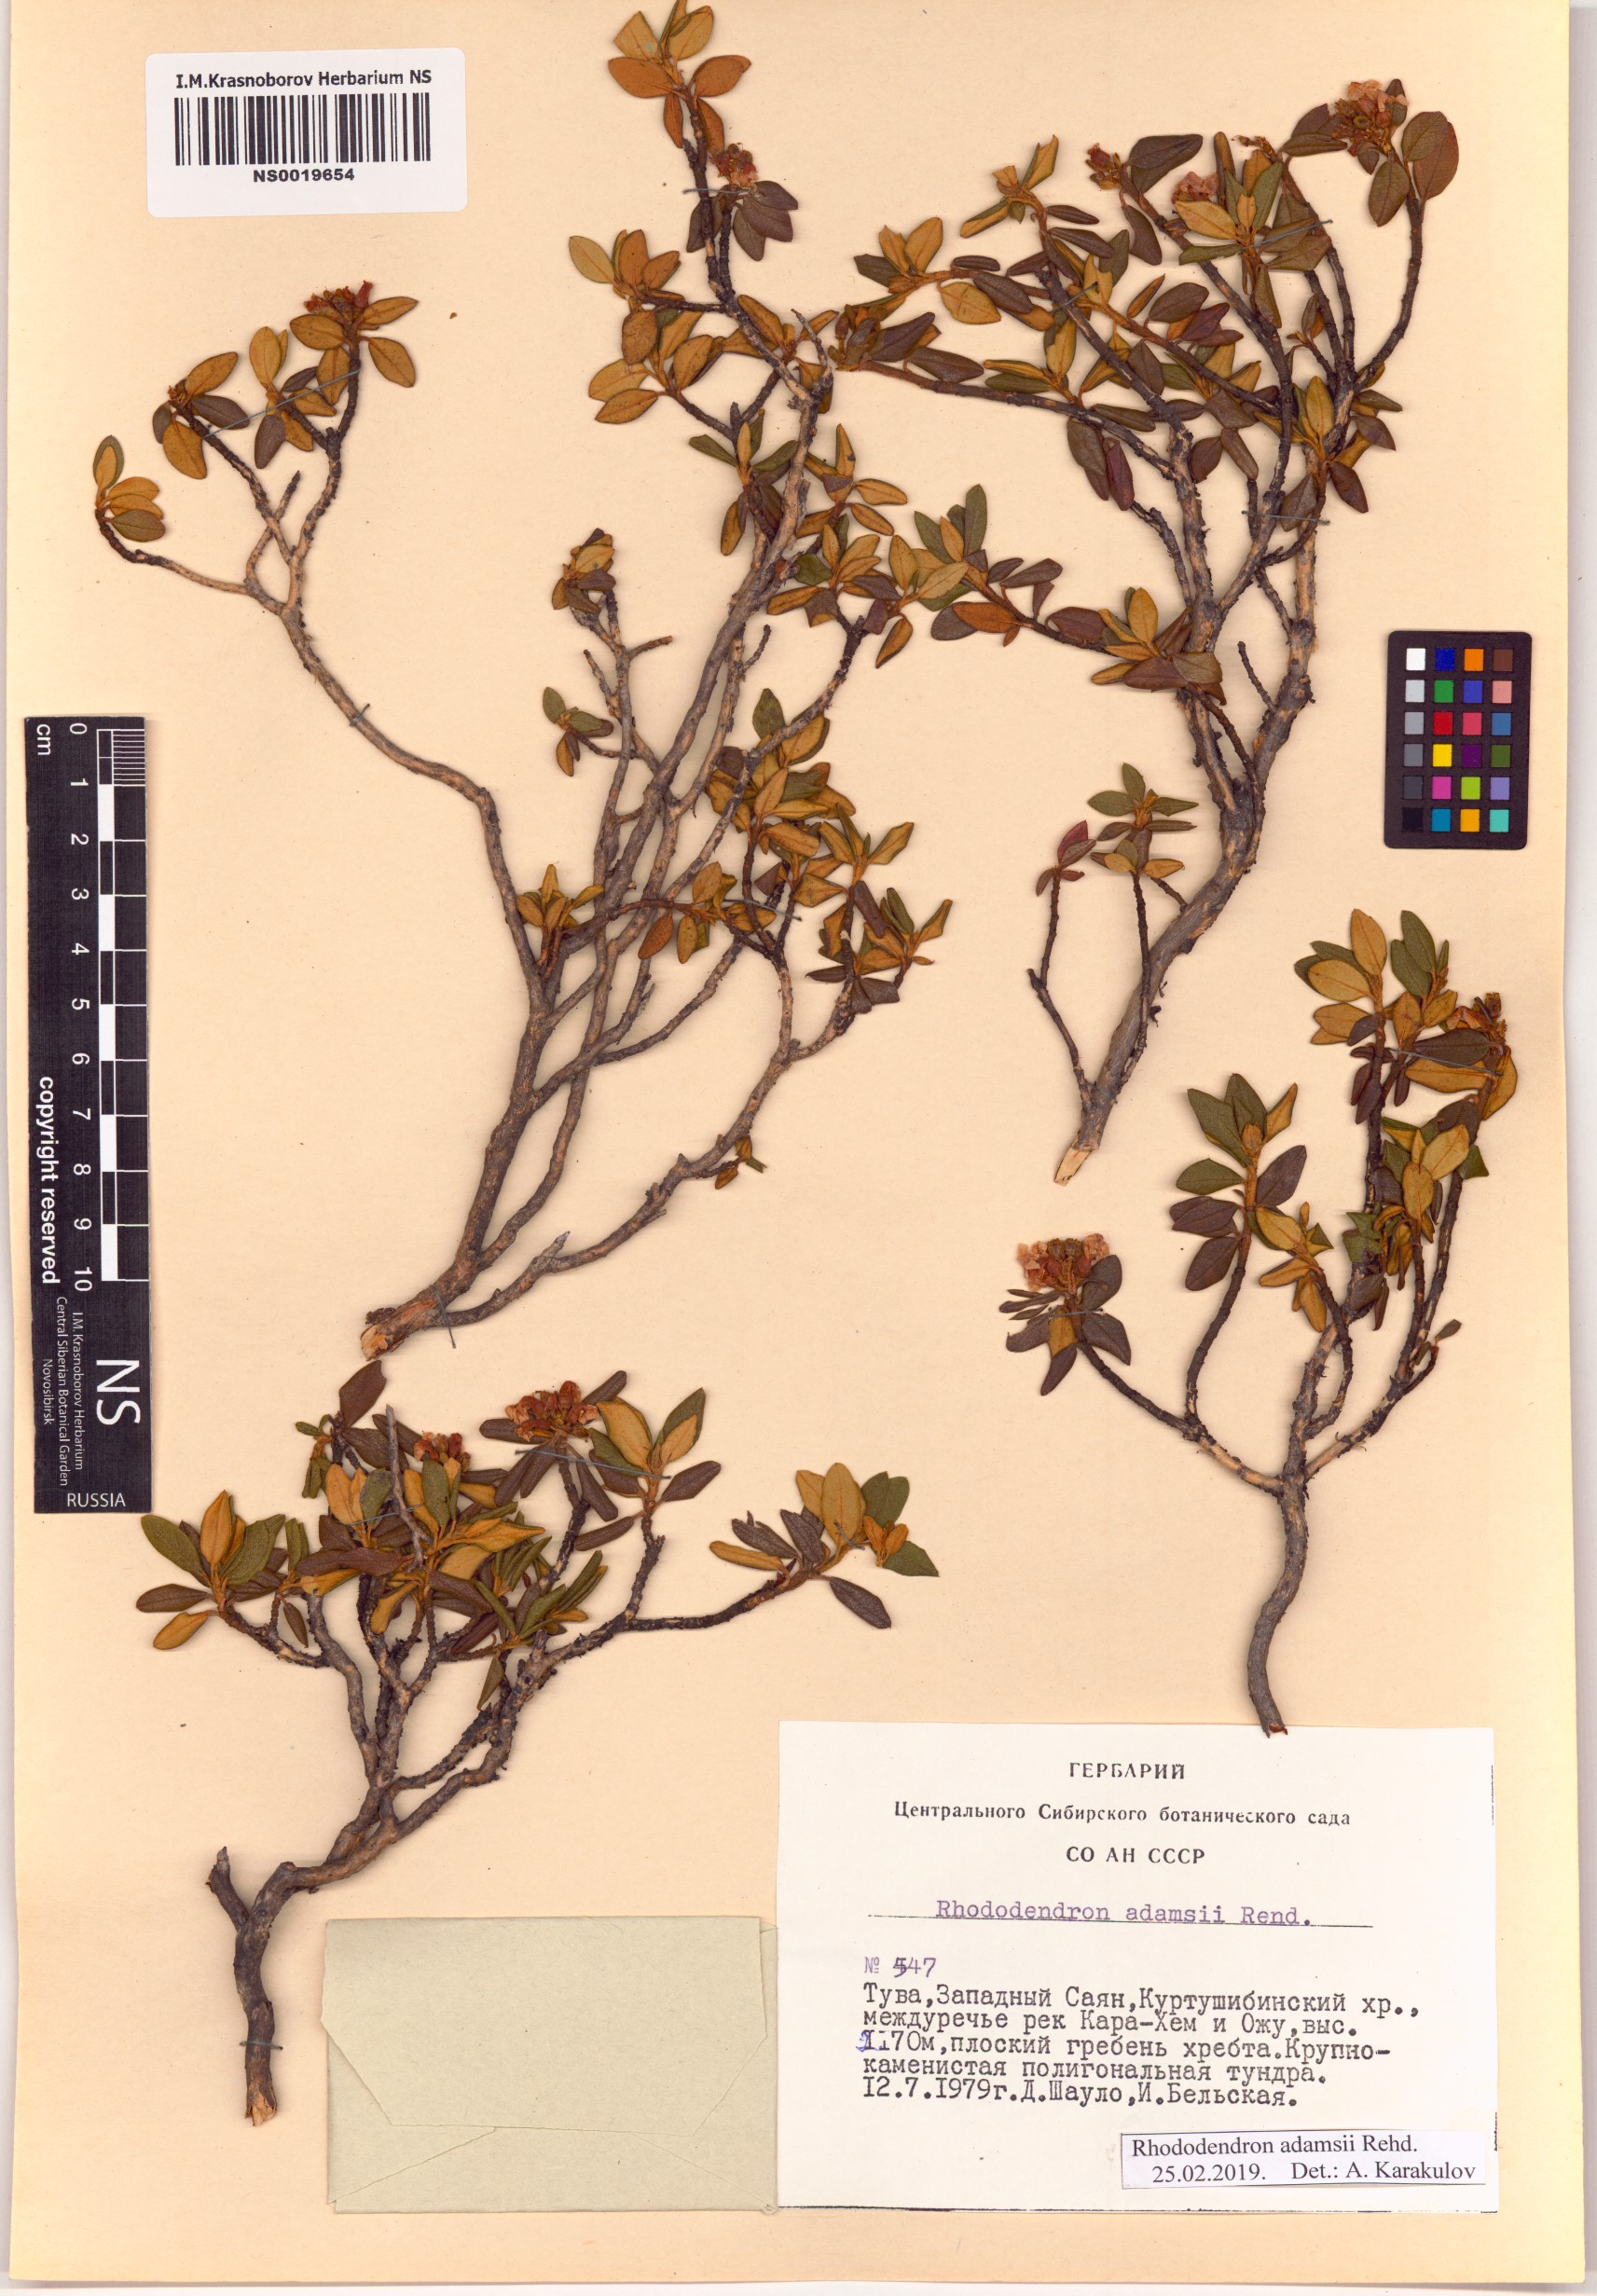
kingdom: Plantae
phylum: Tracheophyta
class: Magnoliopsida
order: Ericales
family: Ericaceae
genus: Rhododendron
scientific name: Rhododendron adamsii
